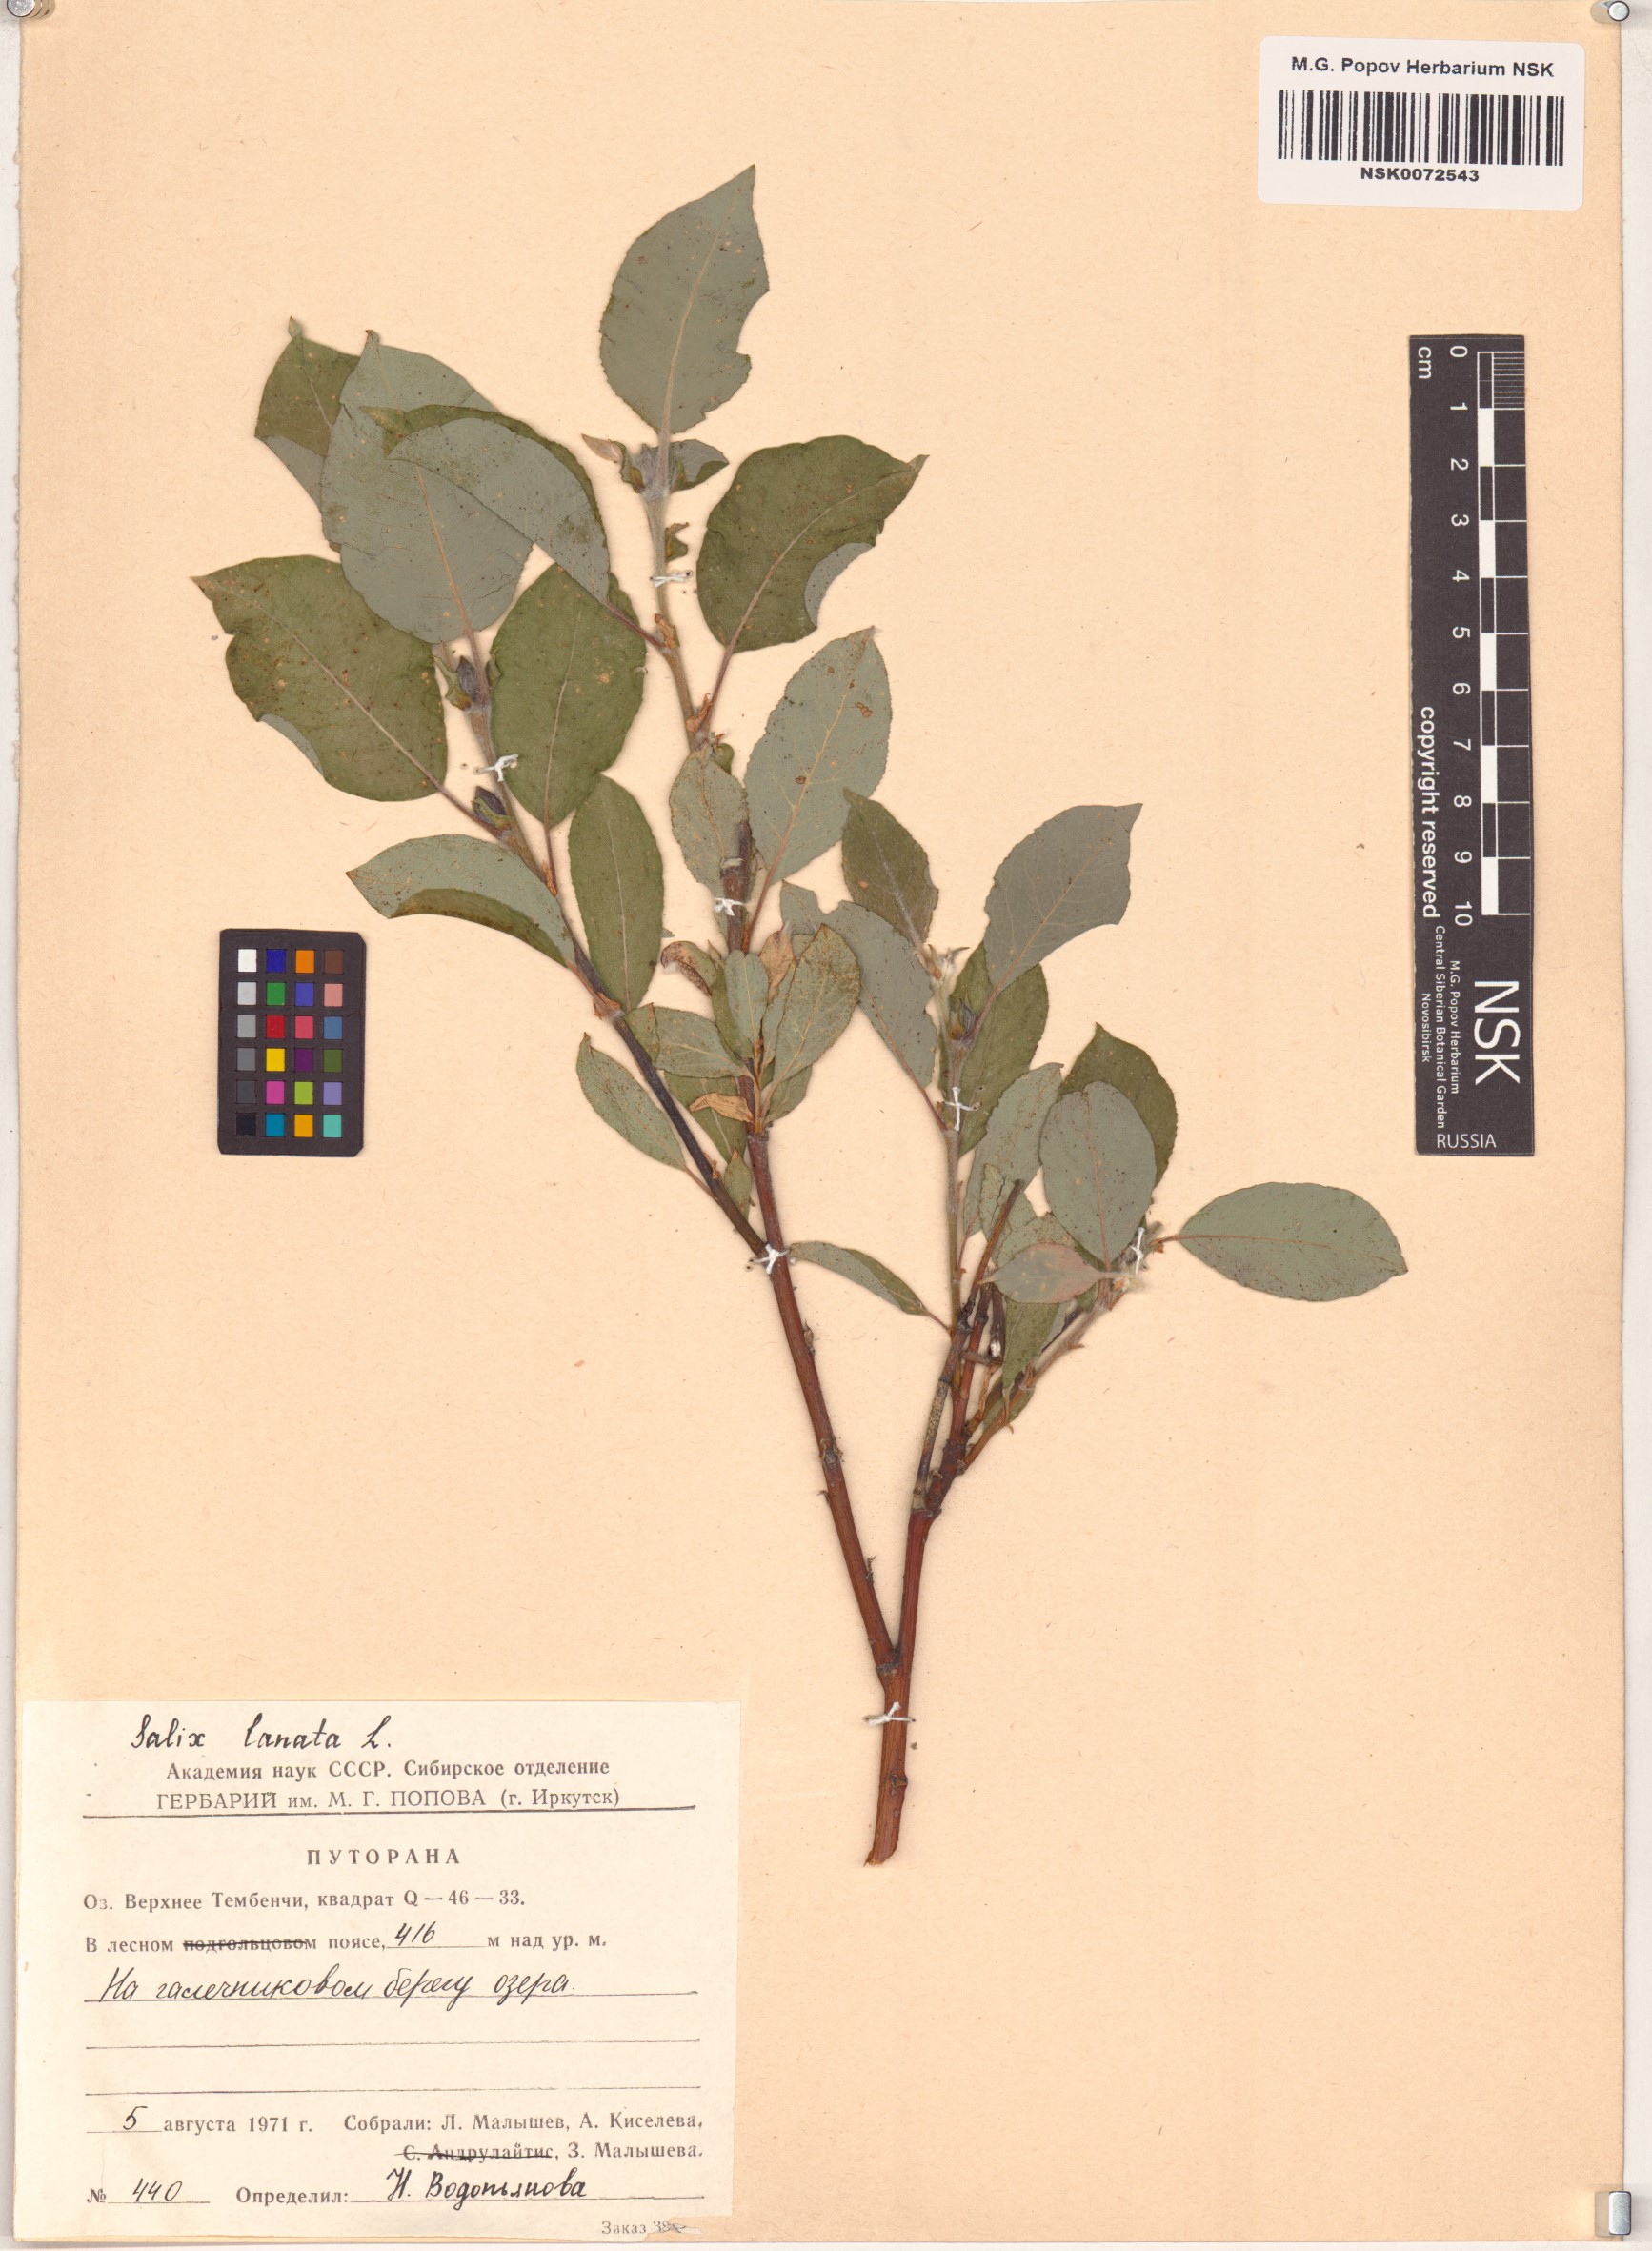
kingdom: Plantae
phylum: Tracheophyta
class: Magnoliopsida
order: Malpighiales
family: Salicaceae
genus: Salix
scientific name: Salix lanata
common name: Woolly willow
